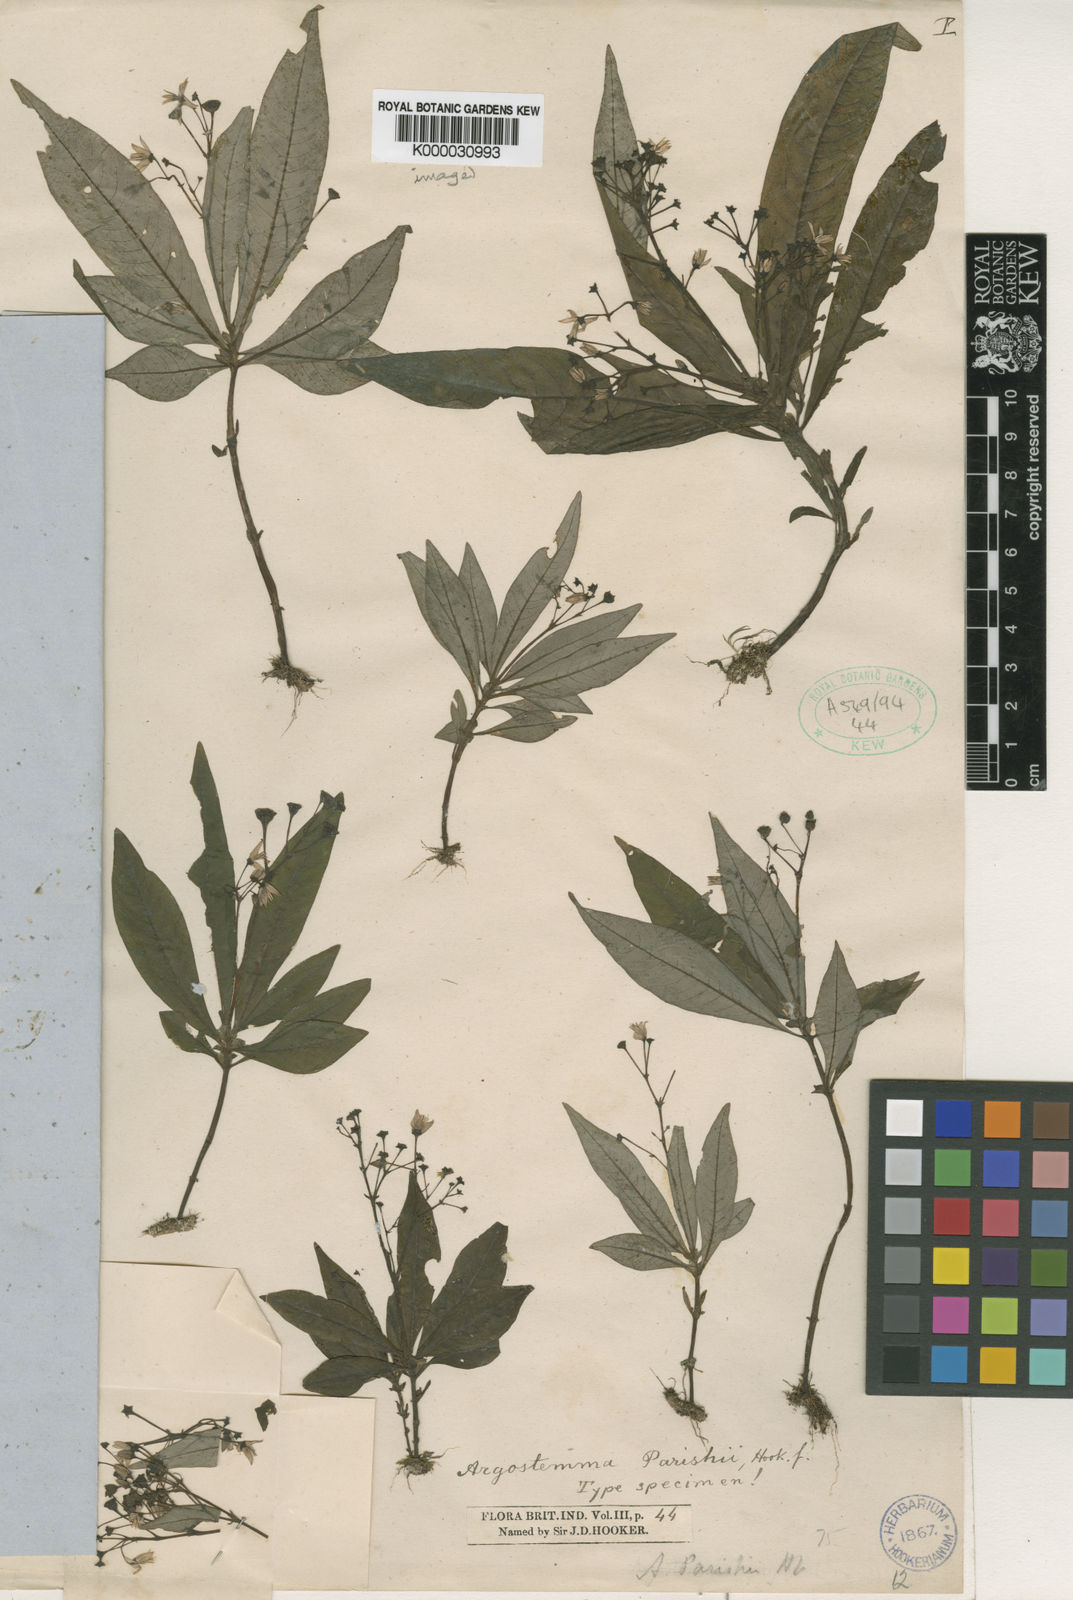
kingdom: Plantae
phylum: Tracheophyta
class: Magnoliopsida
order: Gentianales
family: Rubiaceae
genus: Argostemma
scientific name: Argostemma parishii
